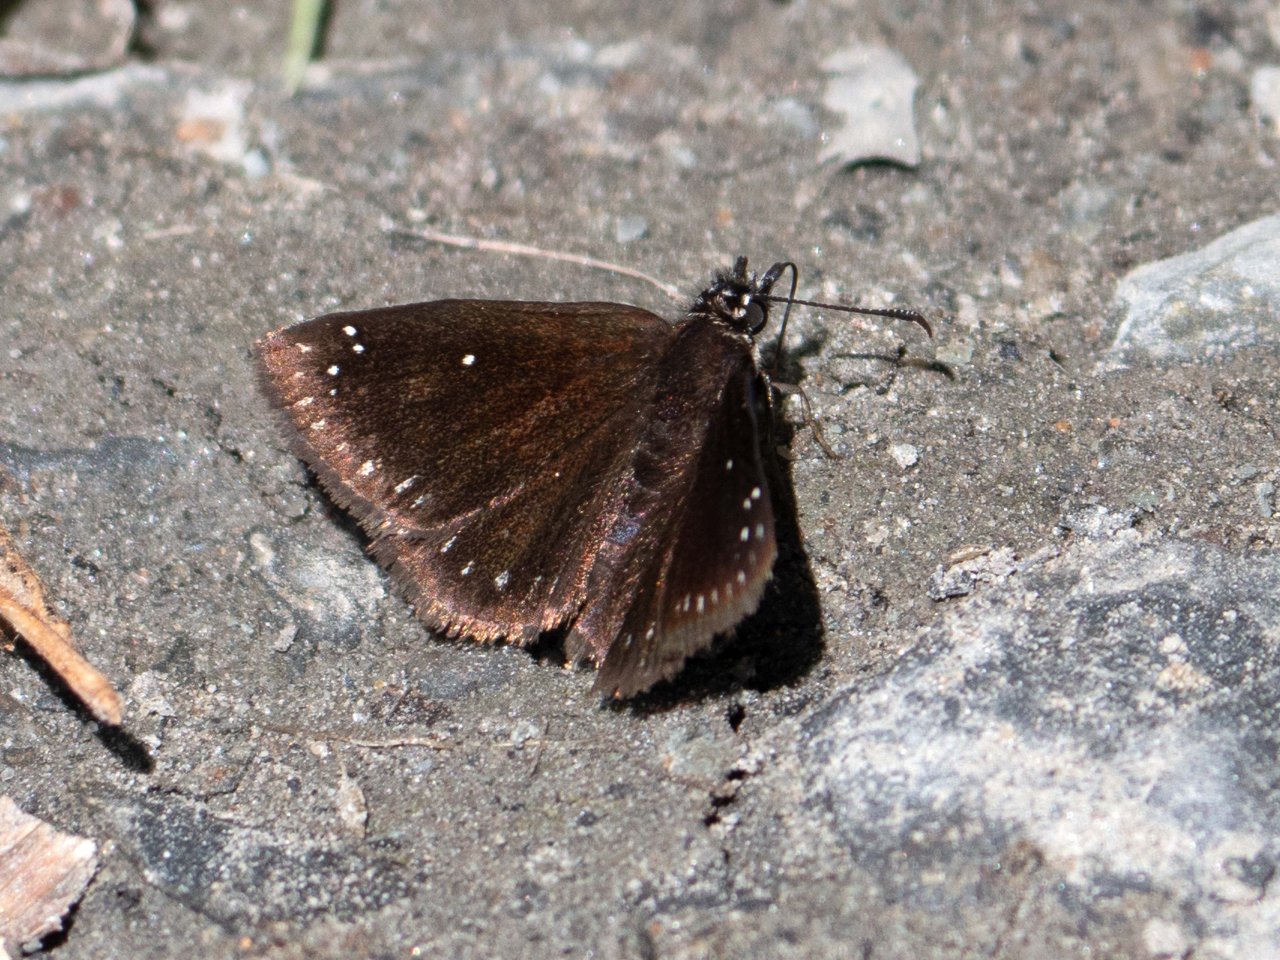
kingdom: Animalia
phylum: Arthropoda
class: Insecta
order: Lepidoptera
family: Hesperiidae
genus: Pholisora
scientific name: Pholisora catullus
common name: Common Sootywing
